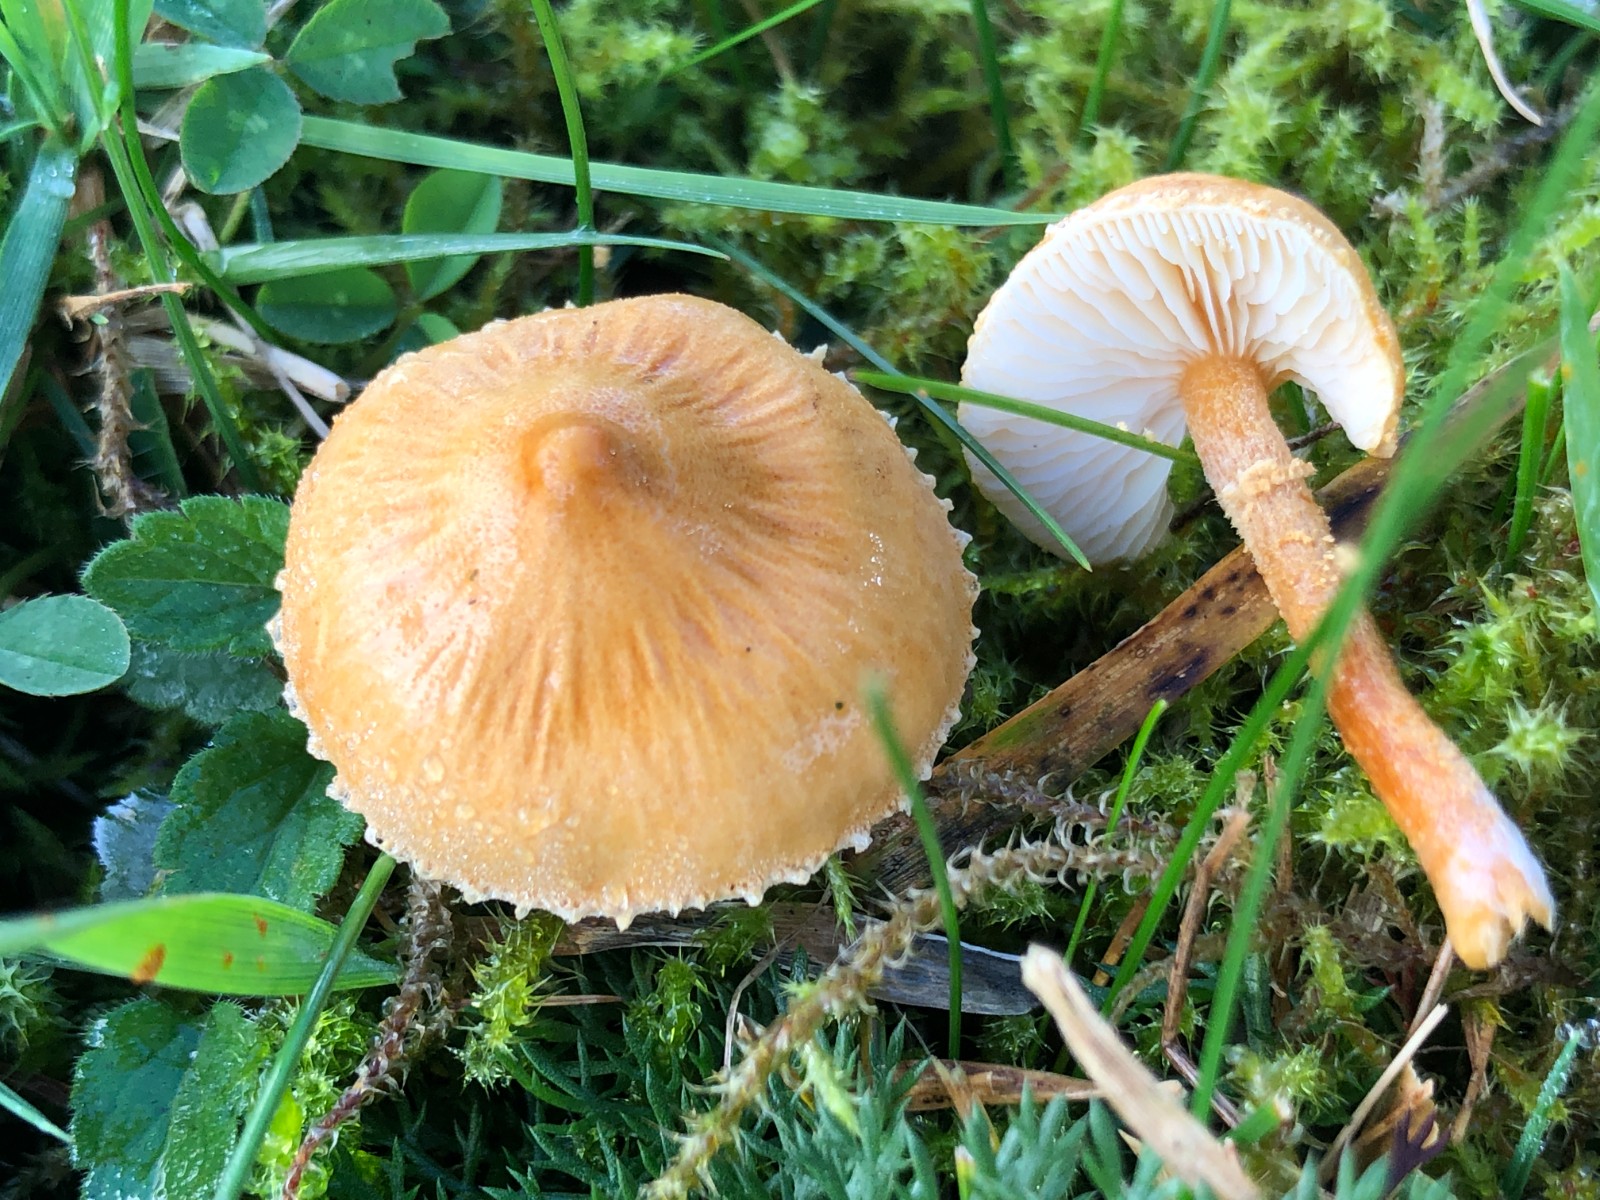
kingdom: Fungi
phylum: Basidiomycota
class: Agaricomycetes
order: Agaricales
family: Tricholomataceae
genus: Cystoderma
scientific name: Cystoderma amianthinum
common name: okkergul grynhat
